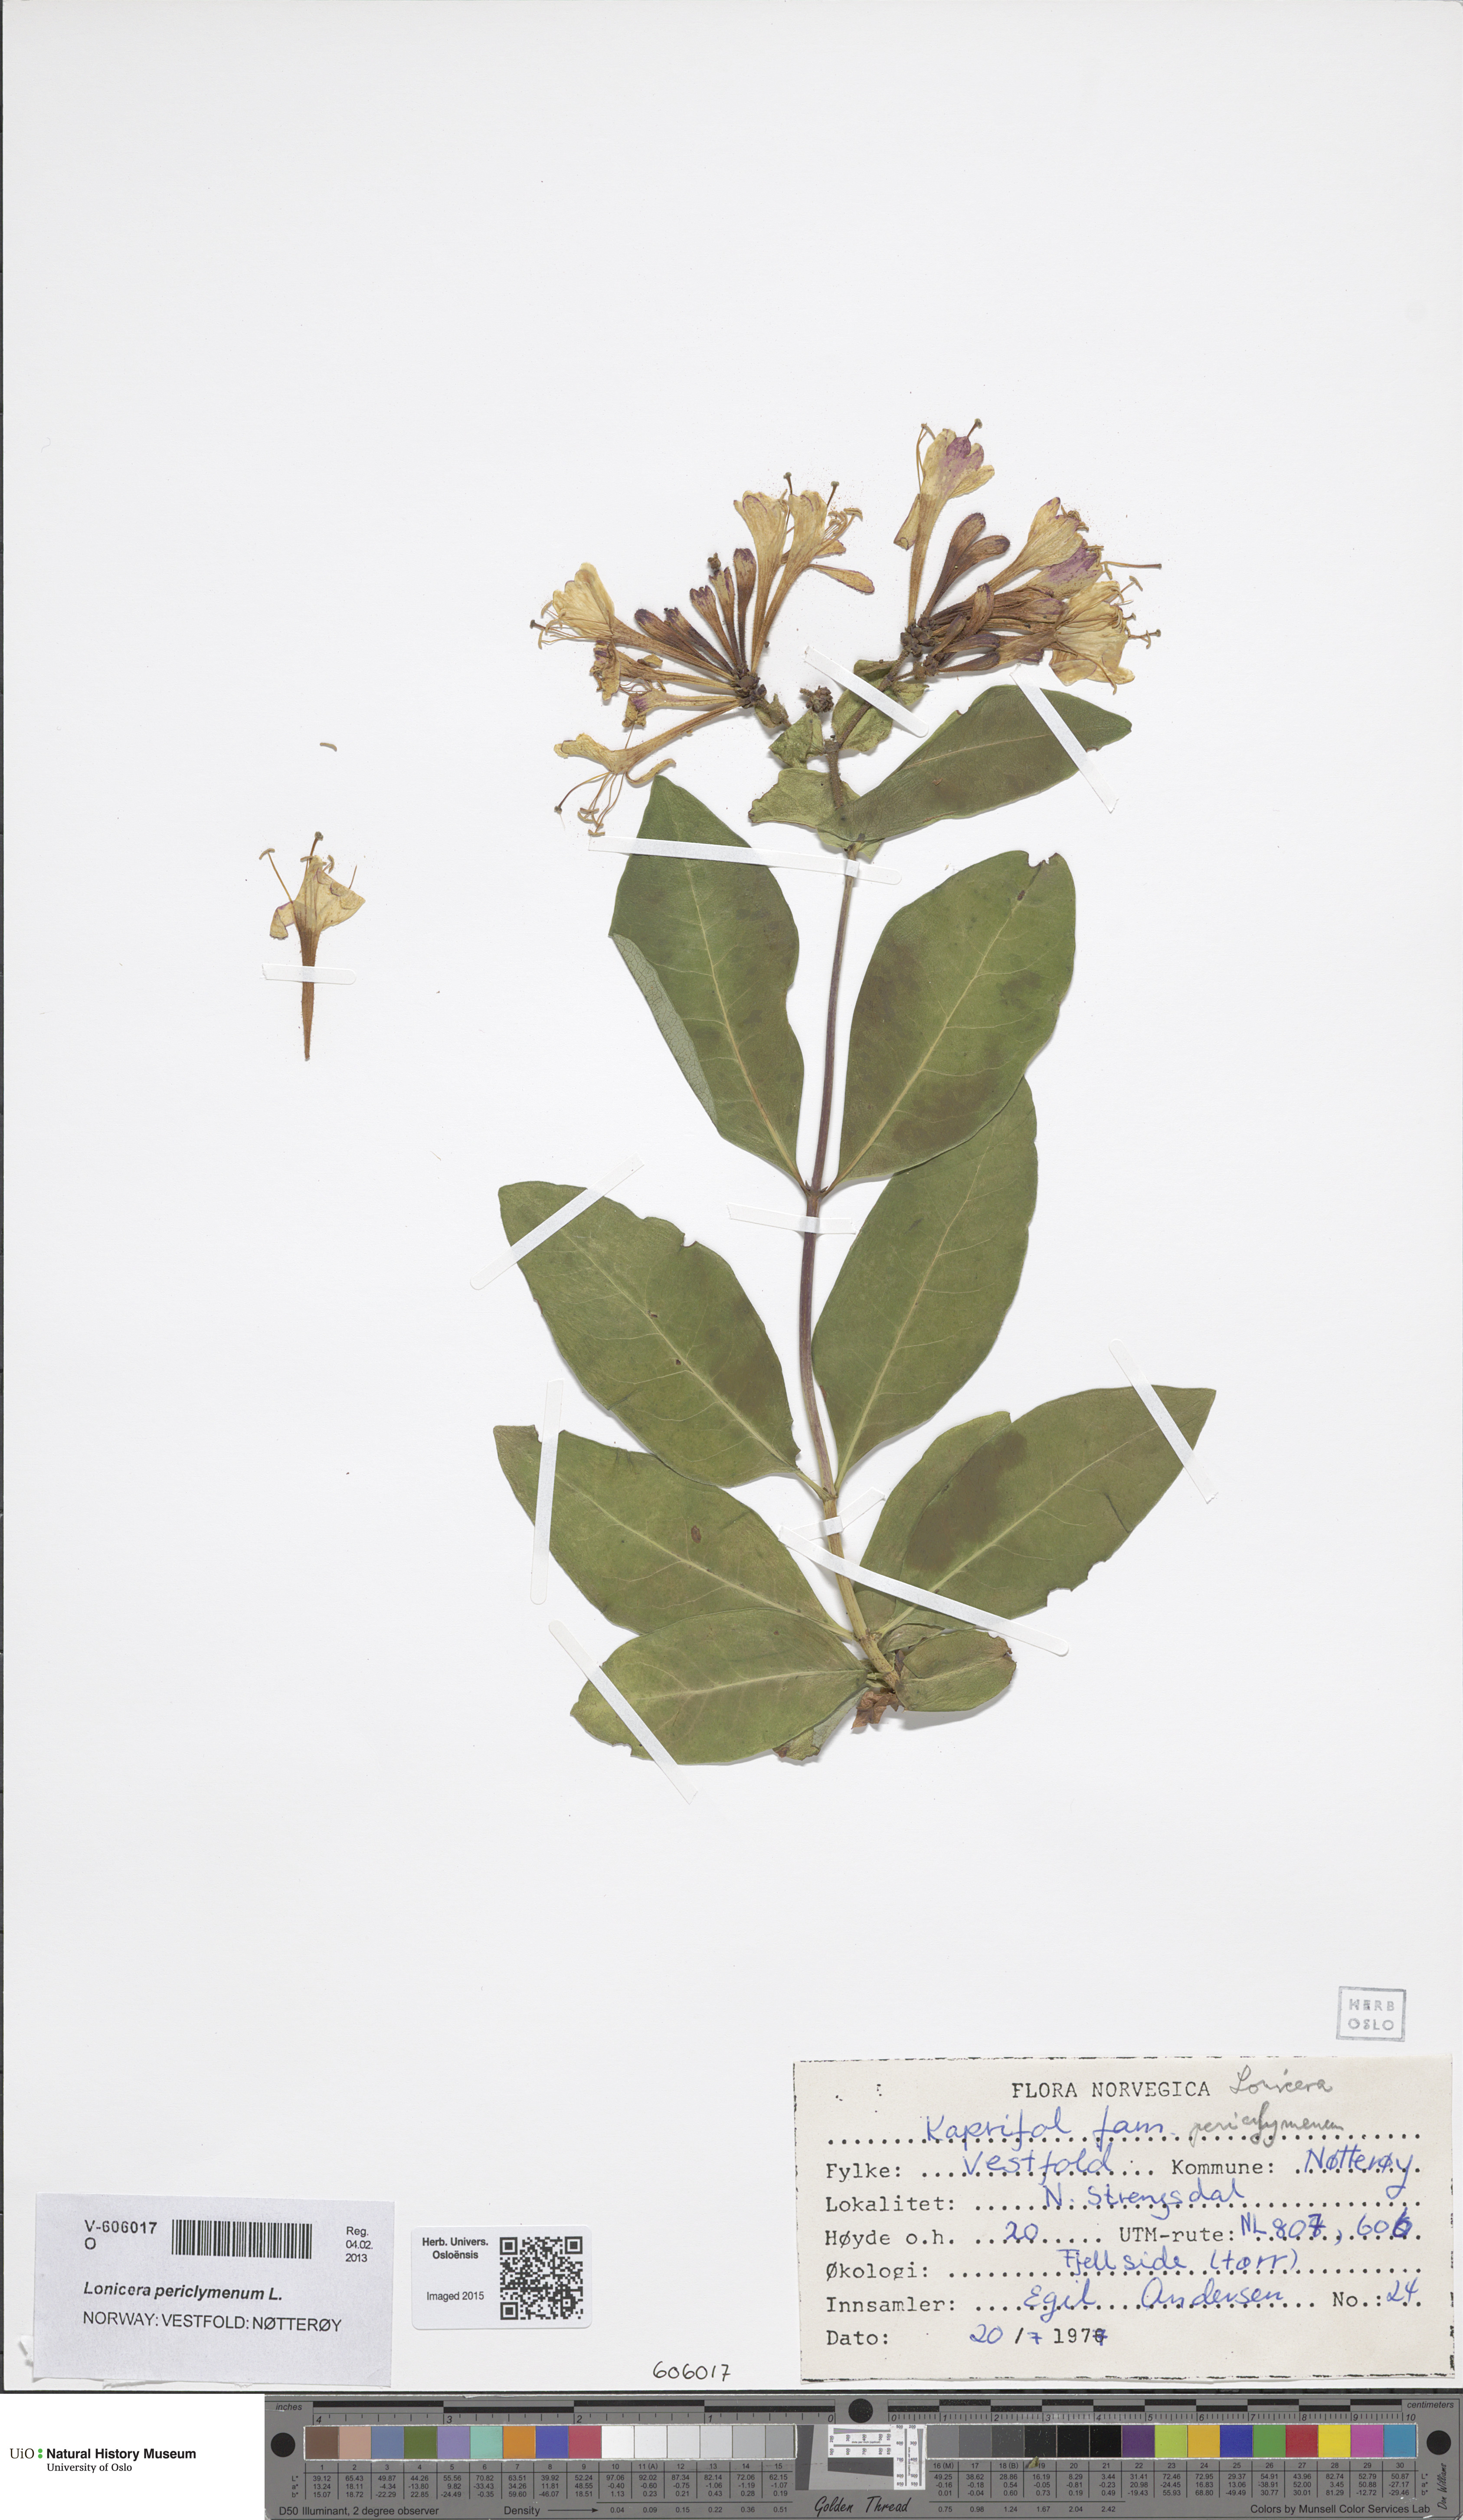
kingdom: Plantae
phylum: Tracheophyta
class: Magnoliopsida
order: Dipsacales
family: Caprifoliaceae
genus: Lonicera
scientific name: Lonicera periclymenum
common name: European honeysuckle
